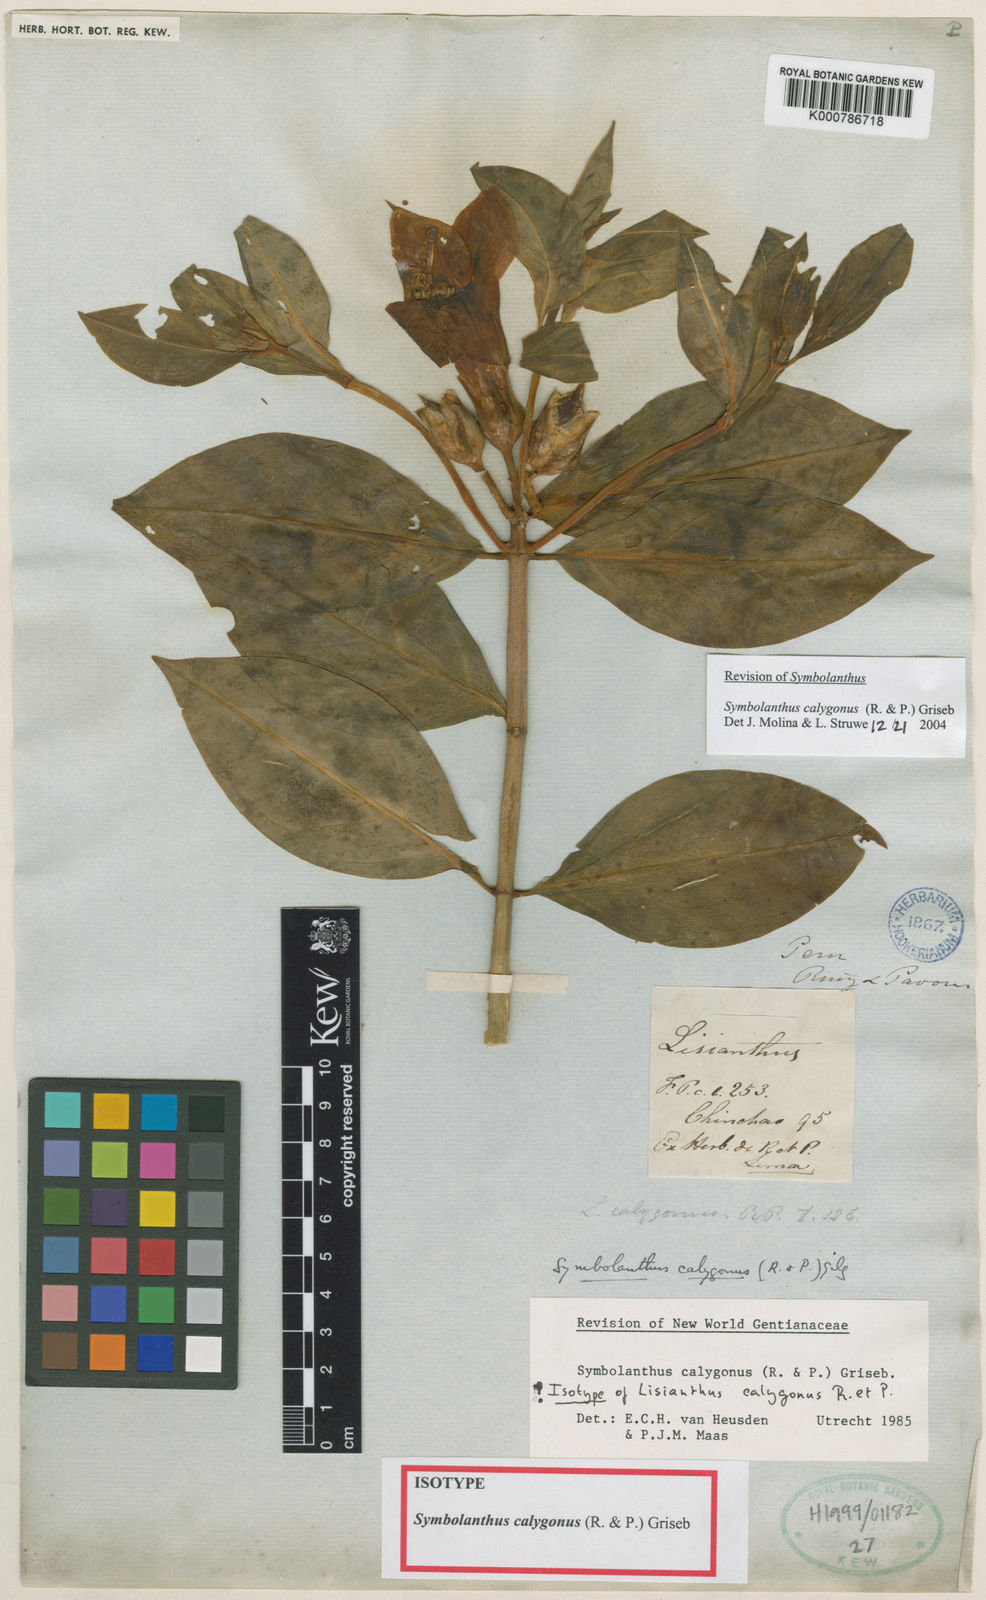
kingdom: Plantae
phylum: Tracheophyta
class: Magnoliopsida
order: Gentianales
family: Gentianaceae
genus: Symbolanthus
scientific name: Symbolanthus
